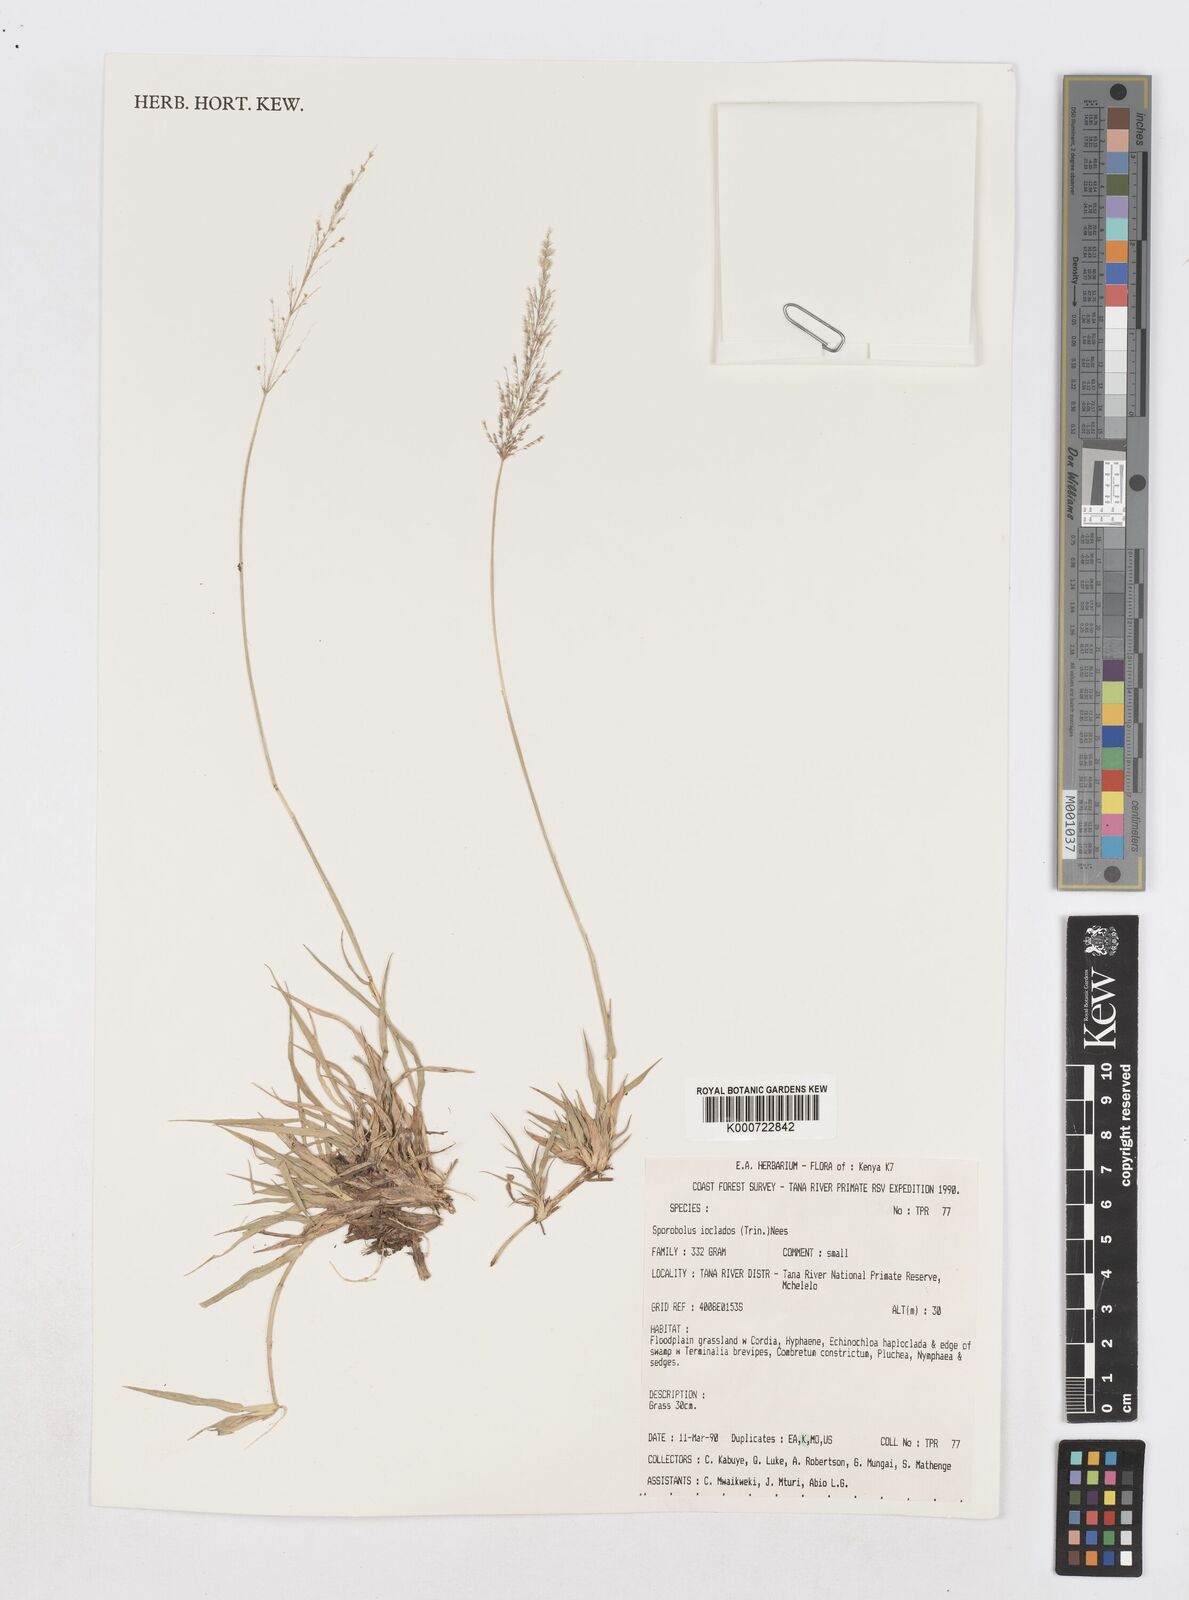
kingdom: Plantae
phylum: Tracheophyta
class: Liliopsida
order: Poales
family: Poaceae
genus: Sporobolus
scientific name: Sporobolus ioclados
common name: Pan dropseed
